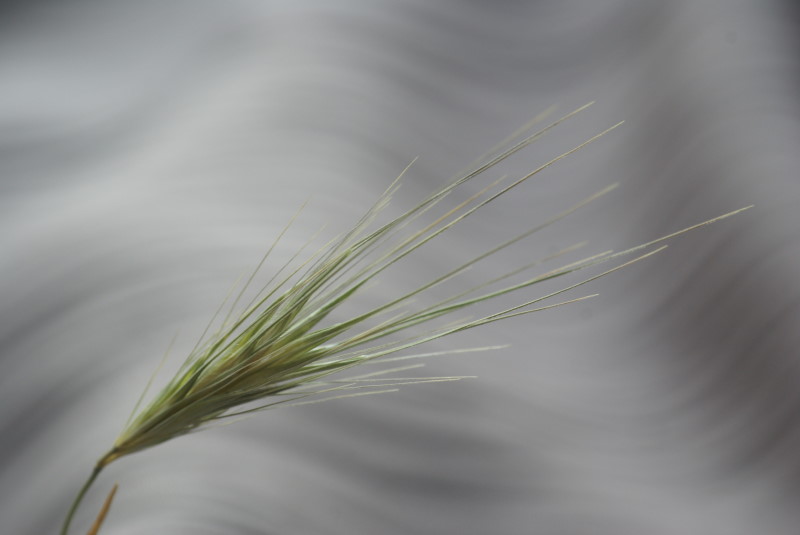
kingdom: Plantae
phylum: Tracheophyta
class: Liliopsida
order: Poales
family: Poaceae
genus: Hordeum
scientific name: Hordeum marinum
